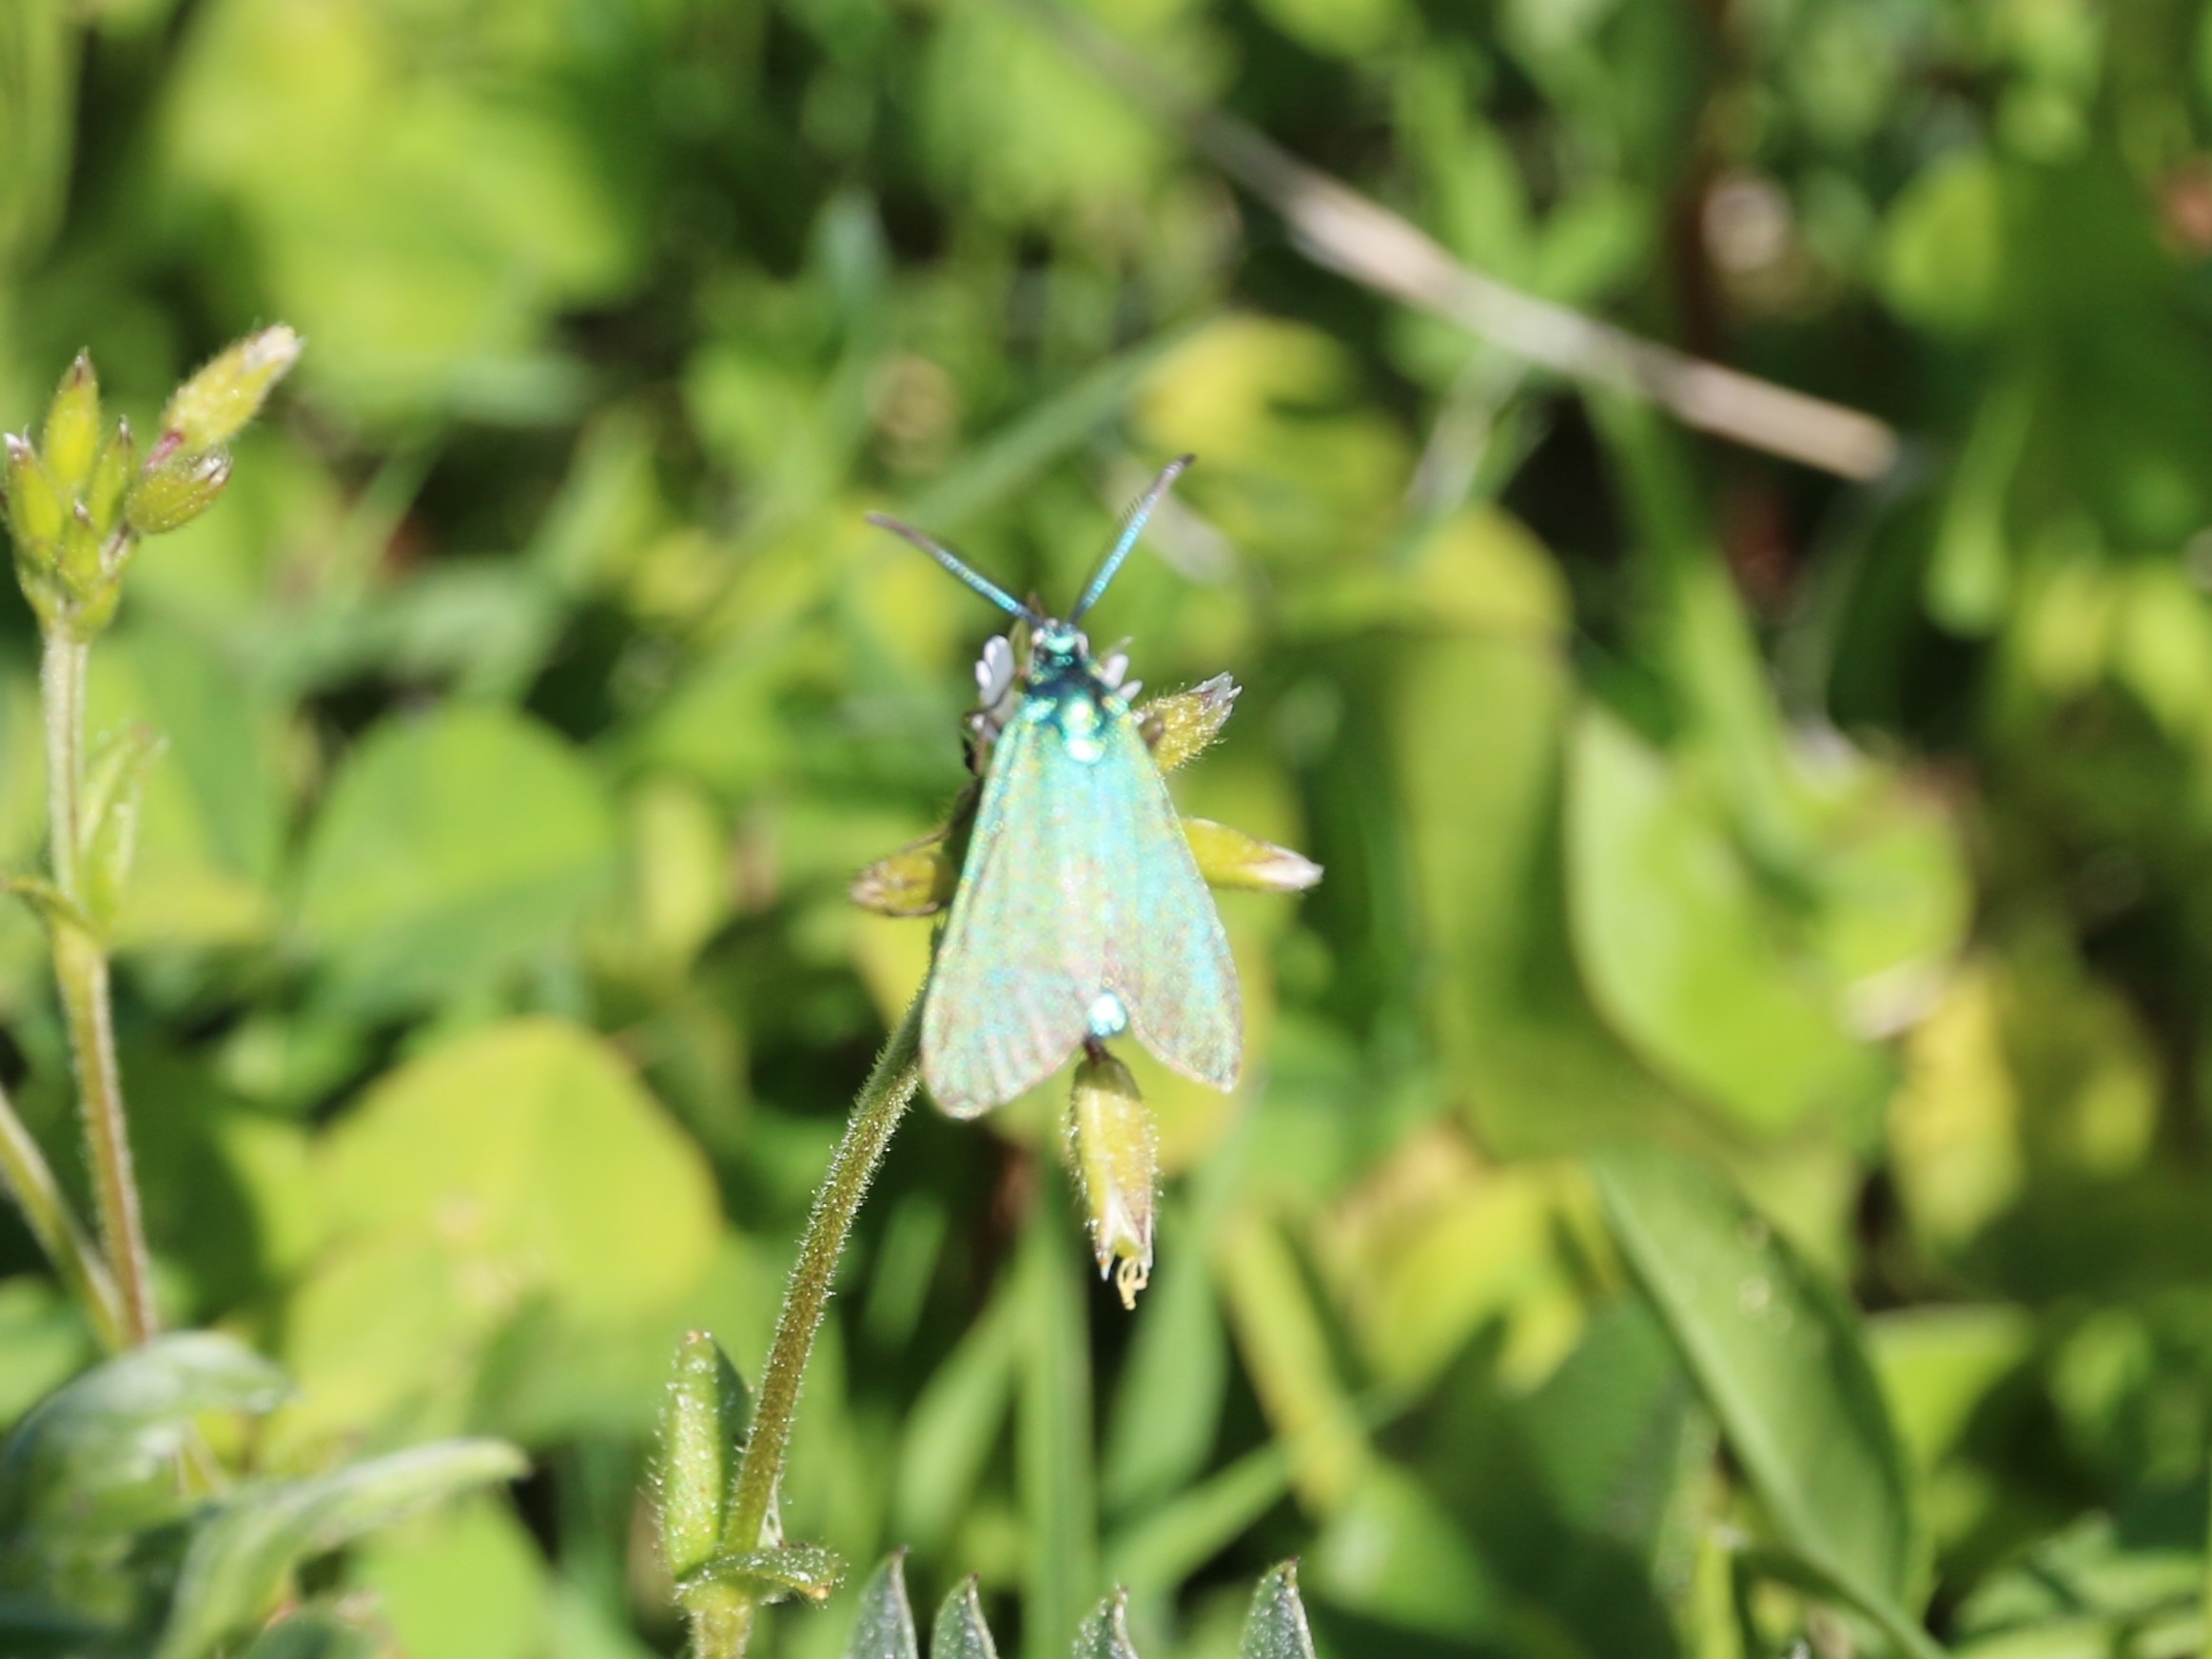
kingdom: Animalia
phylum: Arthropoda
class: Insecta
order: Lepidoptera
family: Zygaenidae
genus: Adscita
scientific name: Adscita statices
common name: Metalvinge
